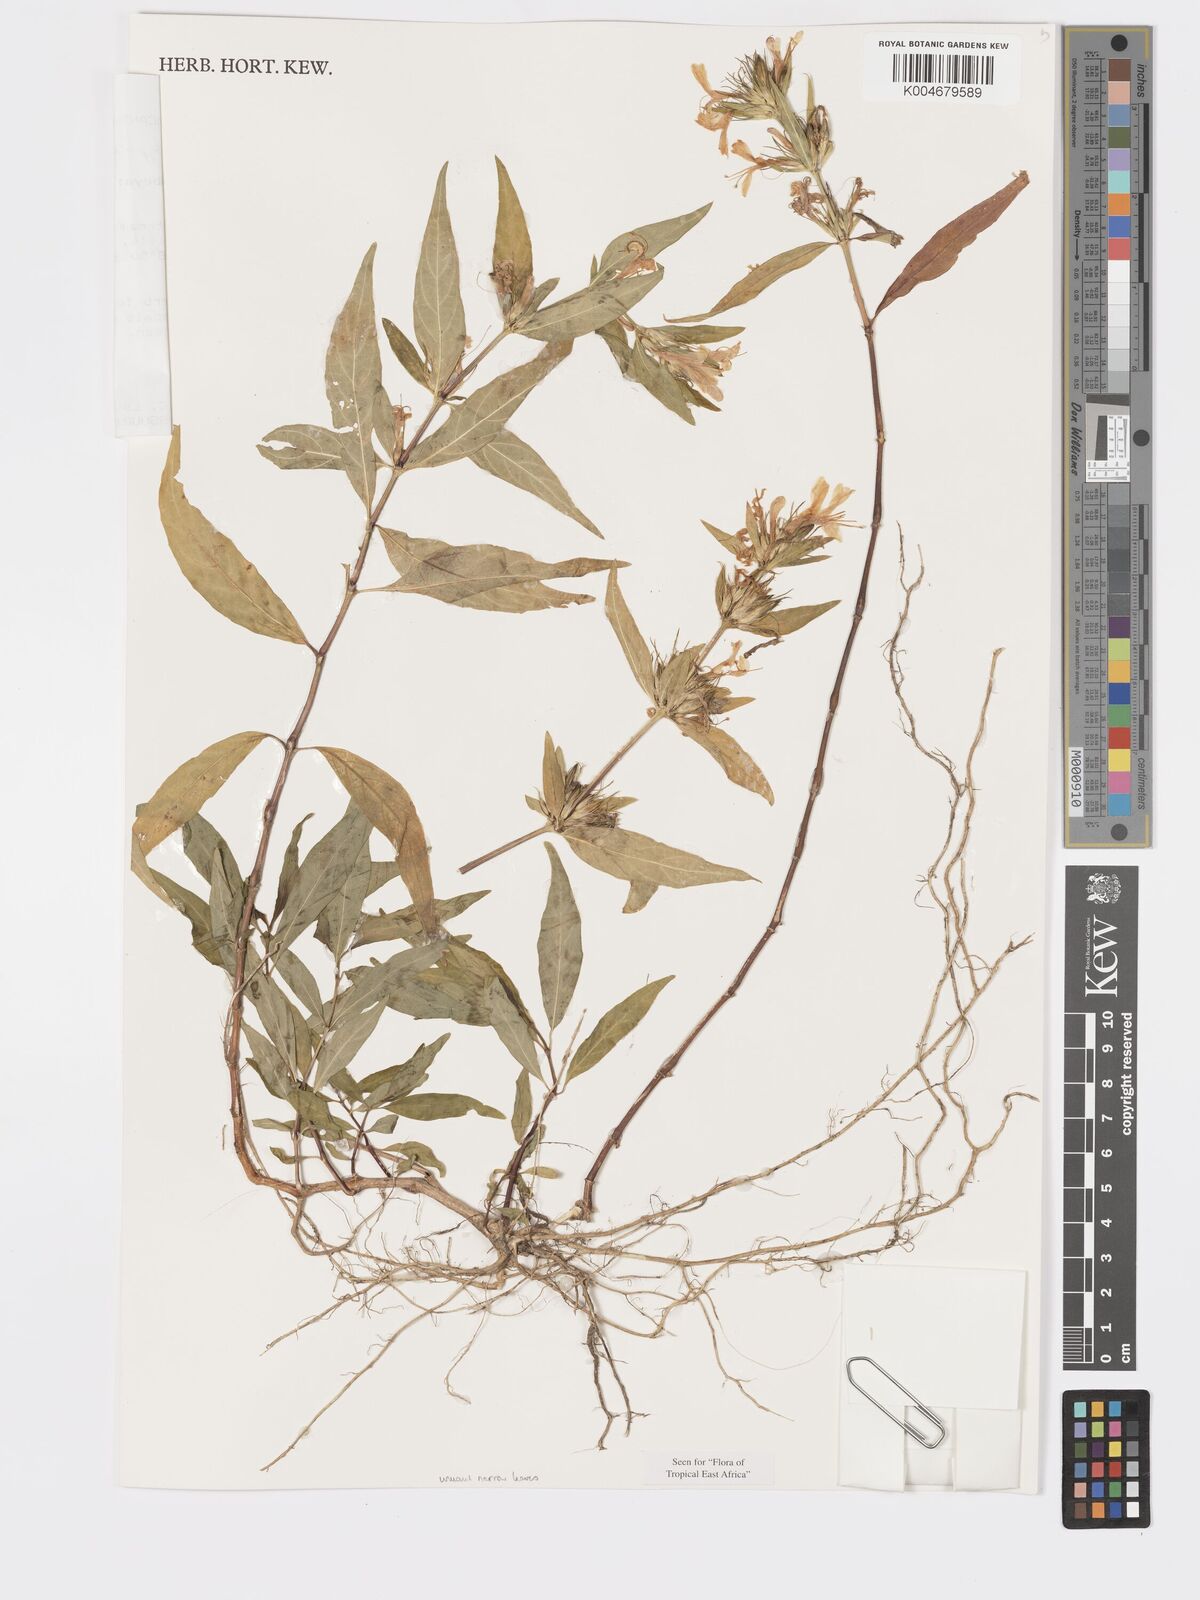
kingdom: Plantae
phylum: Tracheophyta
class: Magnoliopsida
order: Lamiales
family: Acanthaceae
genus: Hypoestes
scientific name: Hypoestes aristata
